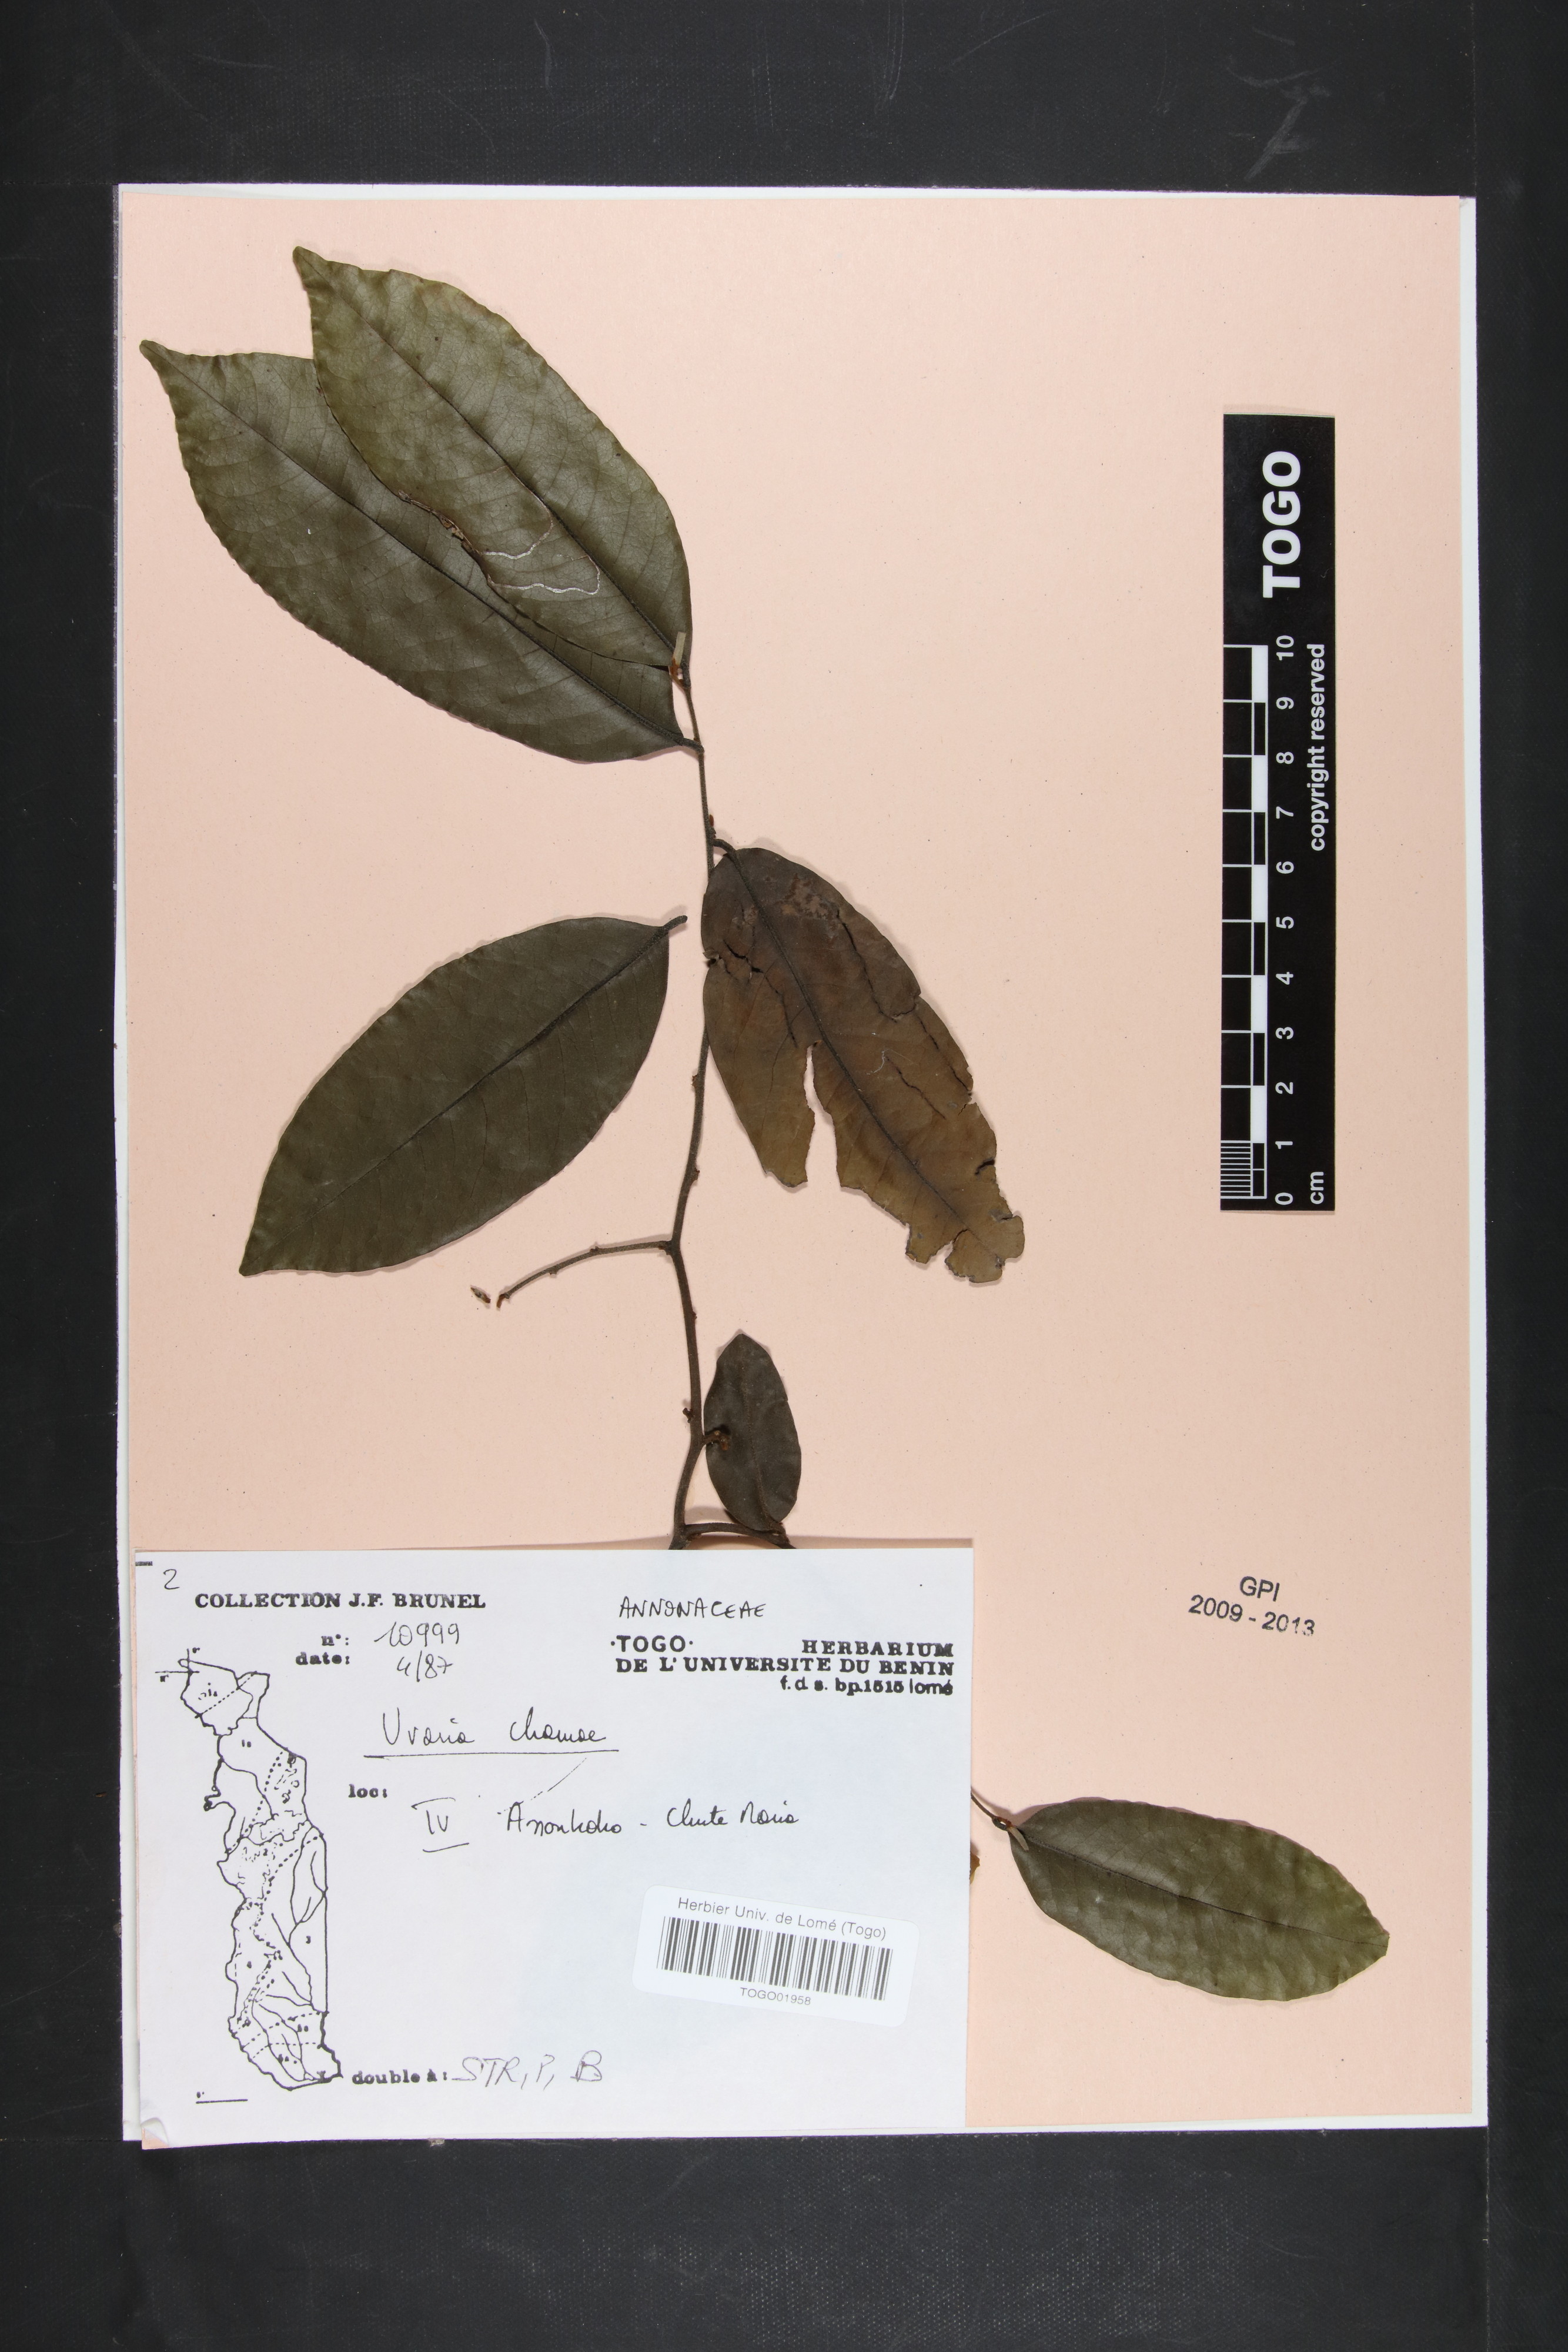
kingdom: Plantae
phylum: Tracheophyta
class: Magnoliopsida
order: Magnoliales
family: Annonaceae
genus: Uvaria
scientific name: Uvaria chamae
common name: Finger-root
